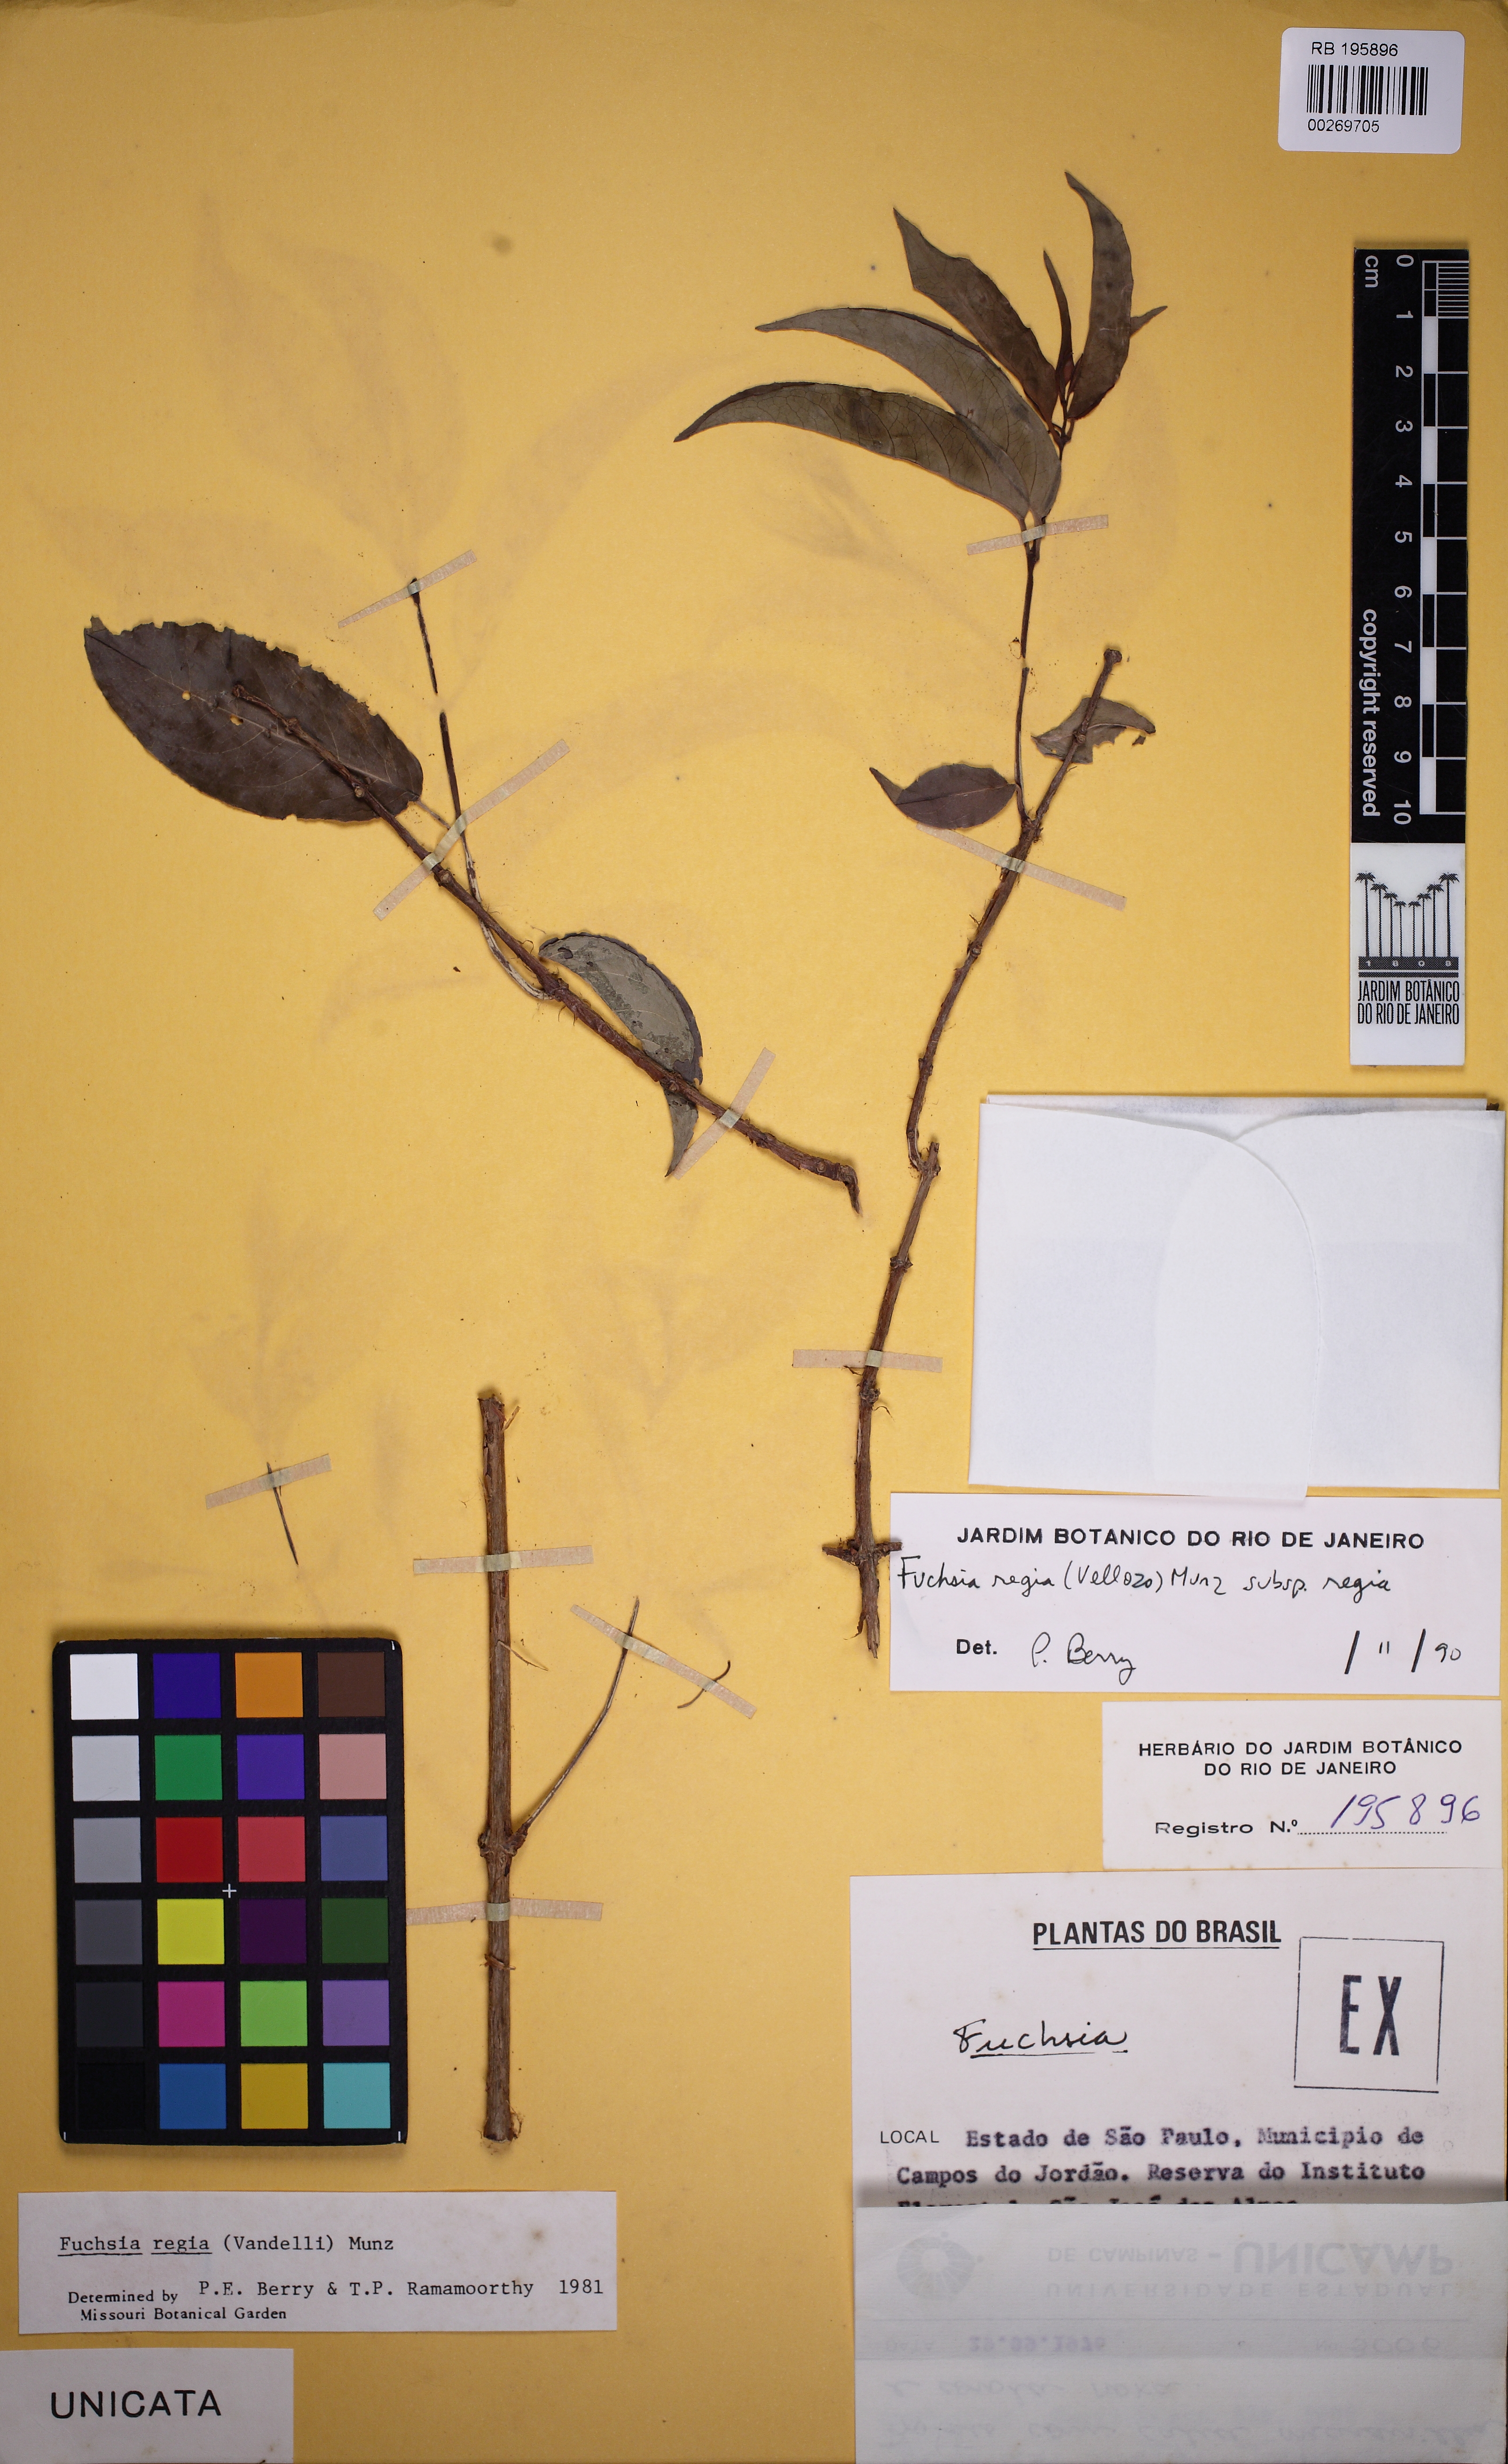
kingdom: Plantae
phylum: Tracheophyta
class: Magnoliopsida
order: Myrtales
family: Onagraceae
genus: Fuchsia
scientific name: Fuchsia regia
